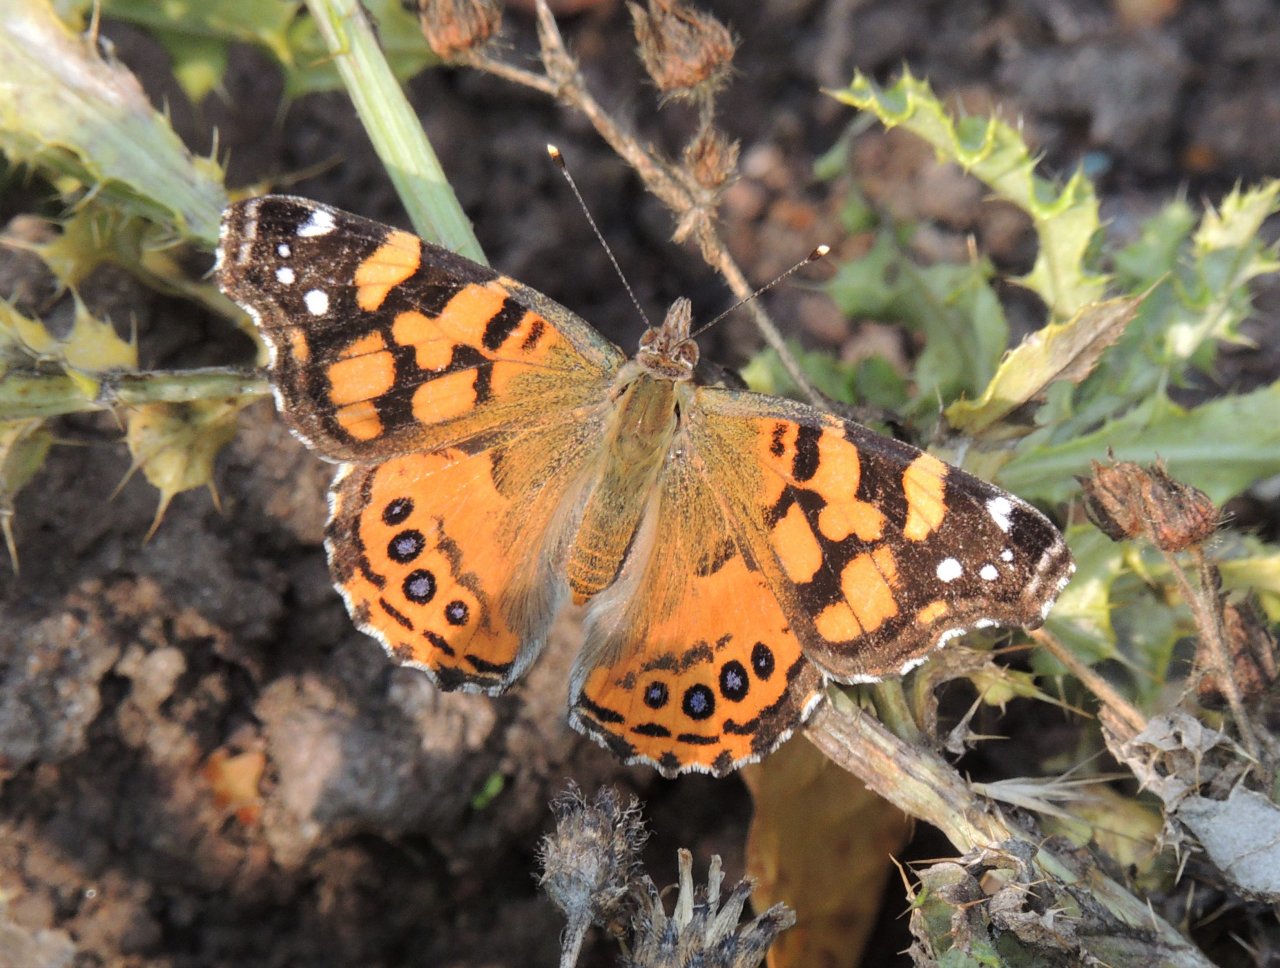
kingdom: Animalia
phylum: Arthropoda
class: Insecta
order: Lepidoptera
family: Nymphalidae
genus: Vanessa
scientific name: Vanessa annabella
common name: West Coast Lady
